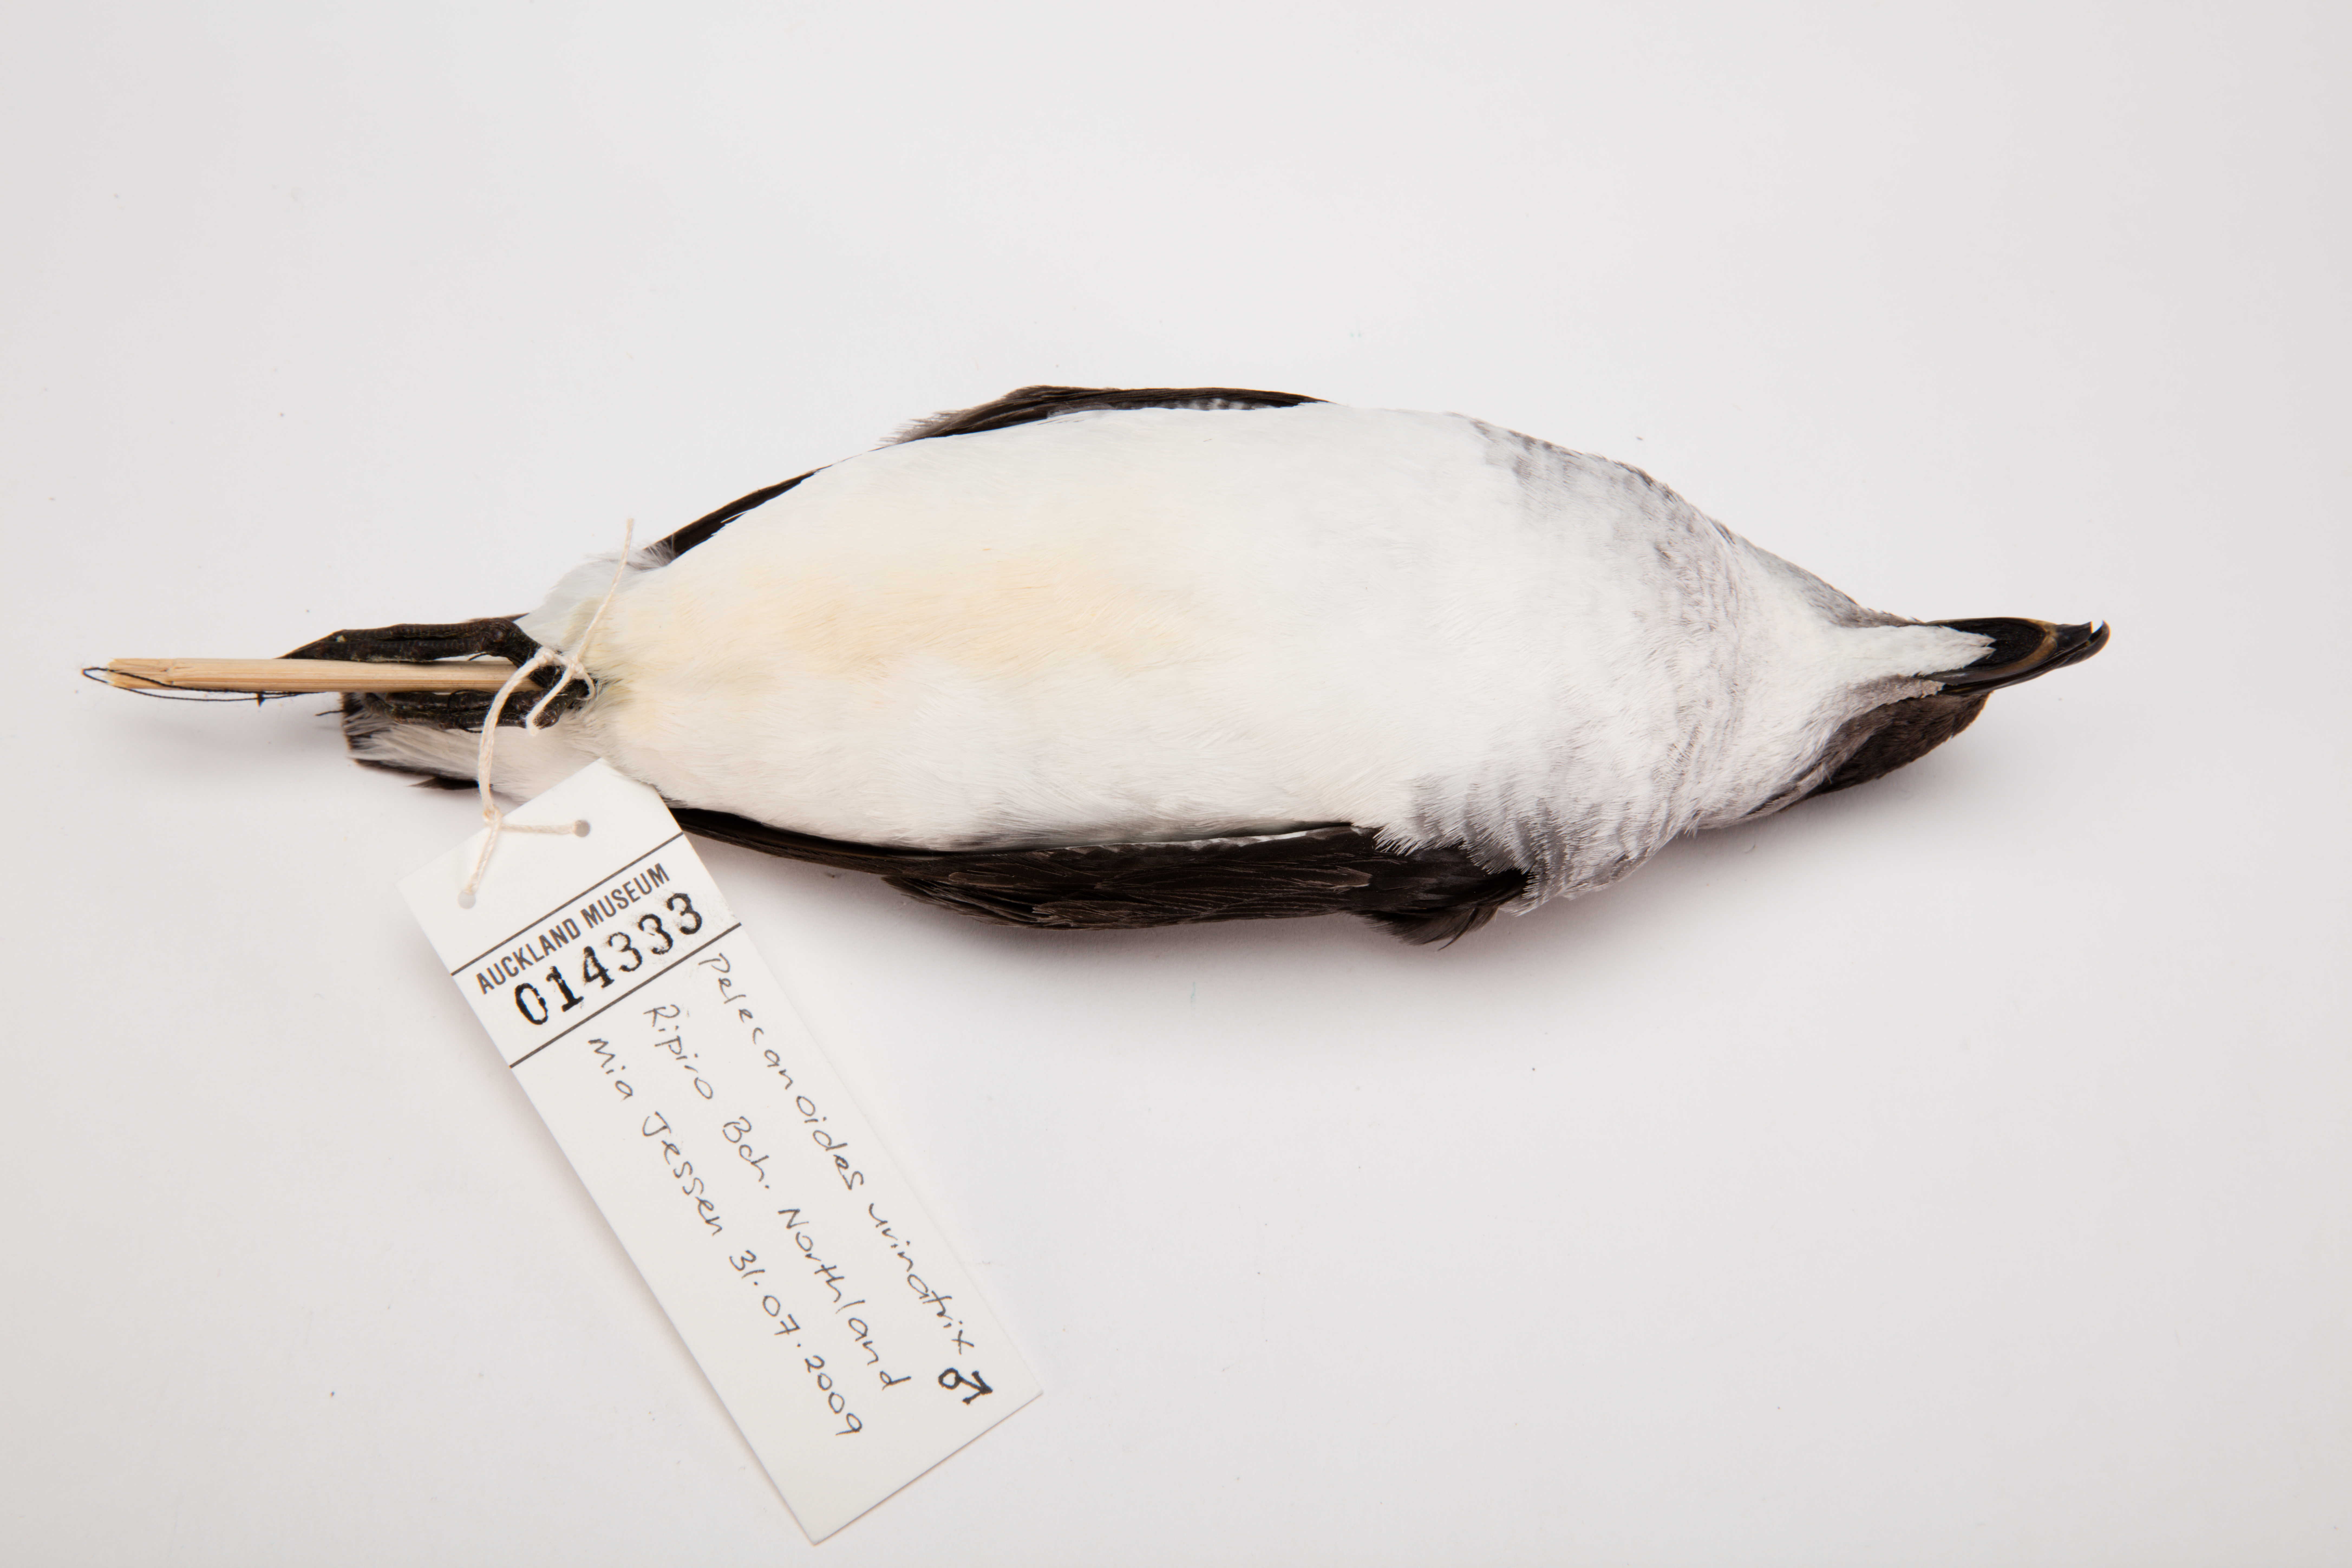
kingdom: Animalia
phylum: Chordata
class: Aves
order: Procellariiformes
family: Pelecanoididae
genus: Pelecanoides
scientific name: Pelecanoides urinatrix
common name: Common diving-petrel
